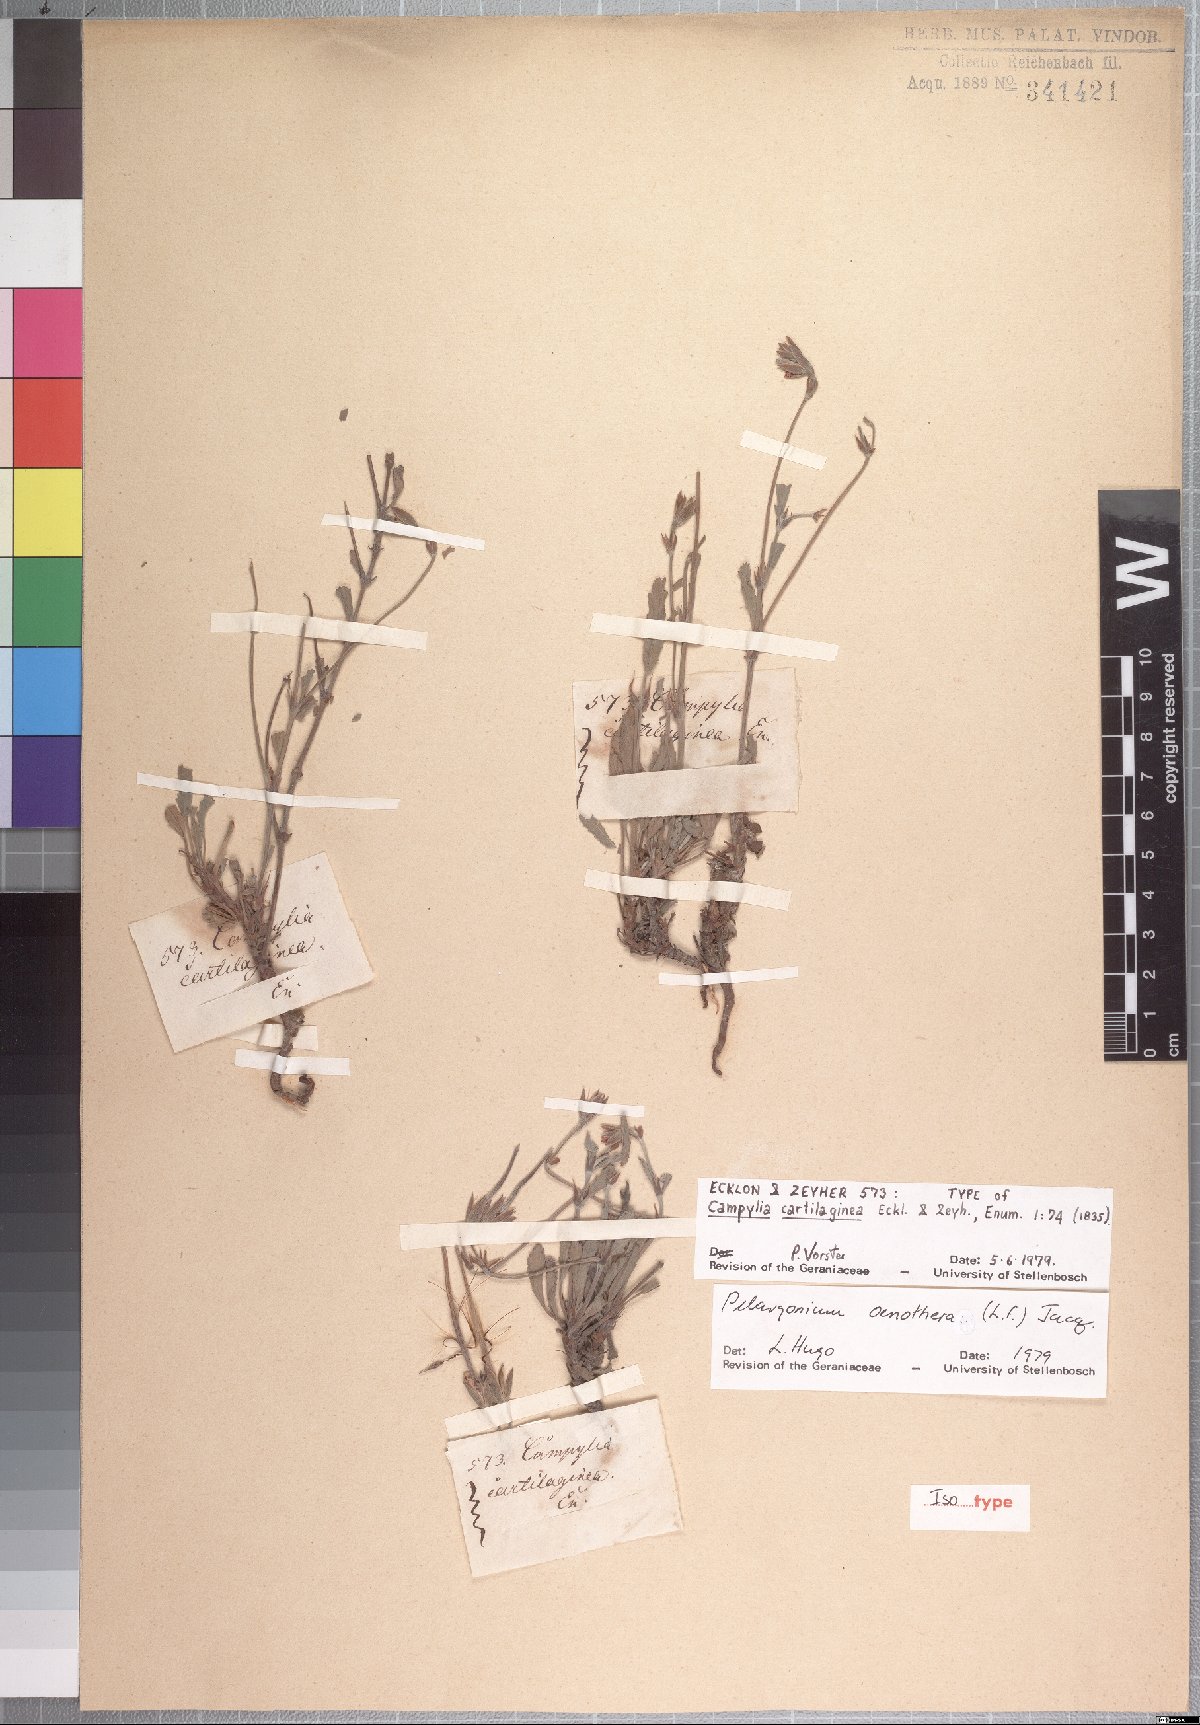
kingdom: Plantae
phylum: Tracheophyta
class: Magnoliopsida
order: Geraniales
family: Geraniaceae
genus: Pelargonium
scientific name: Pelargonium oenotherae
